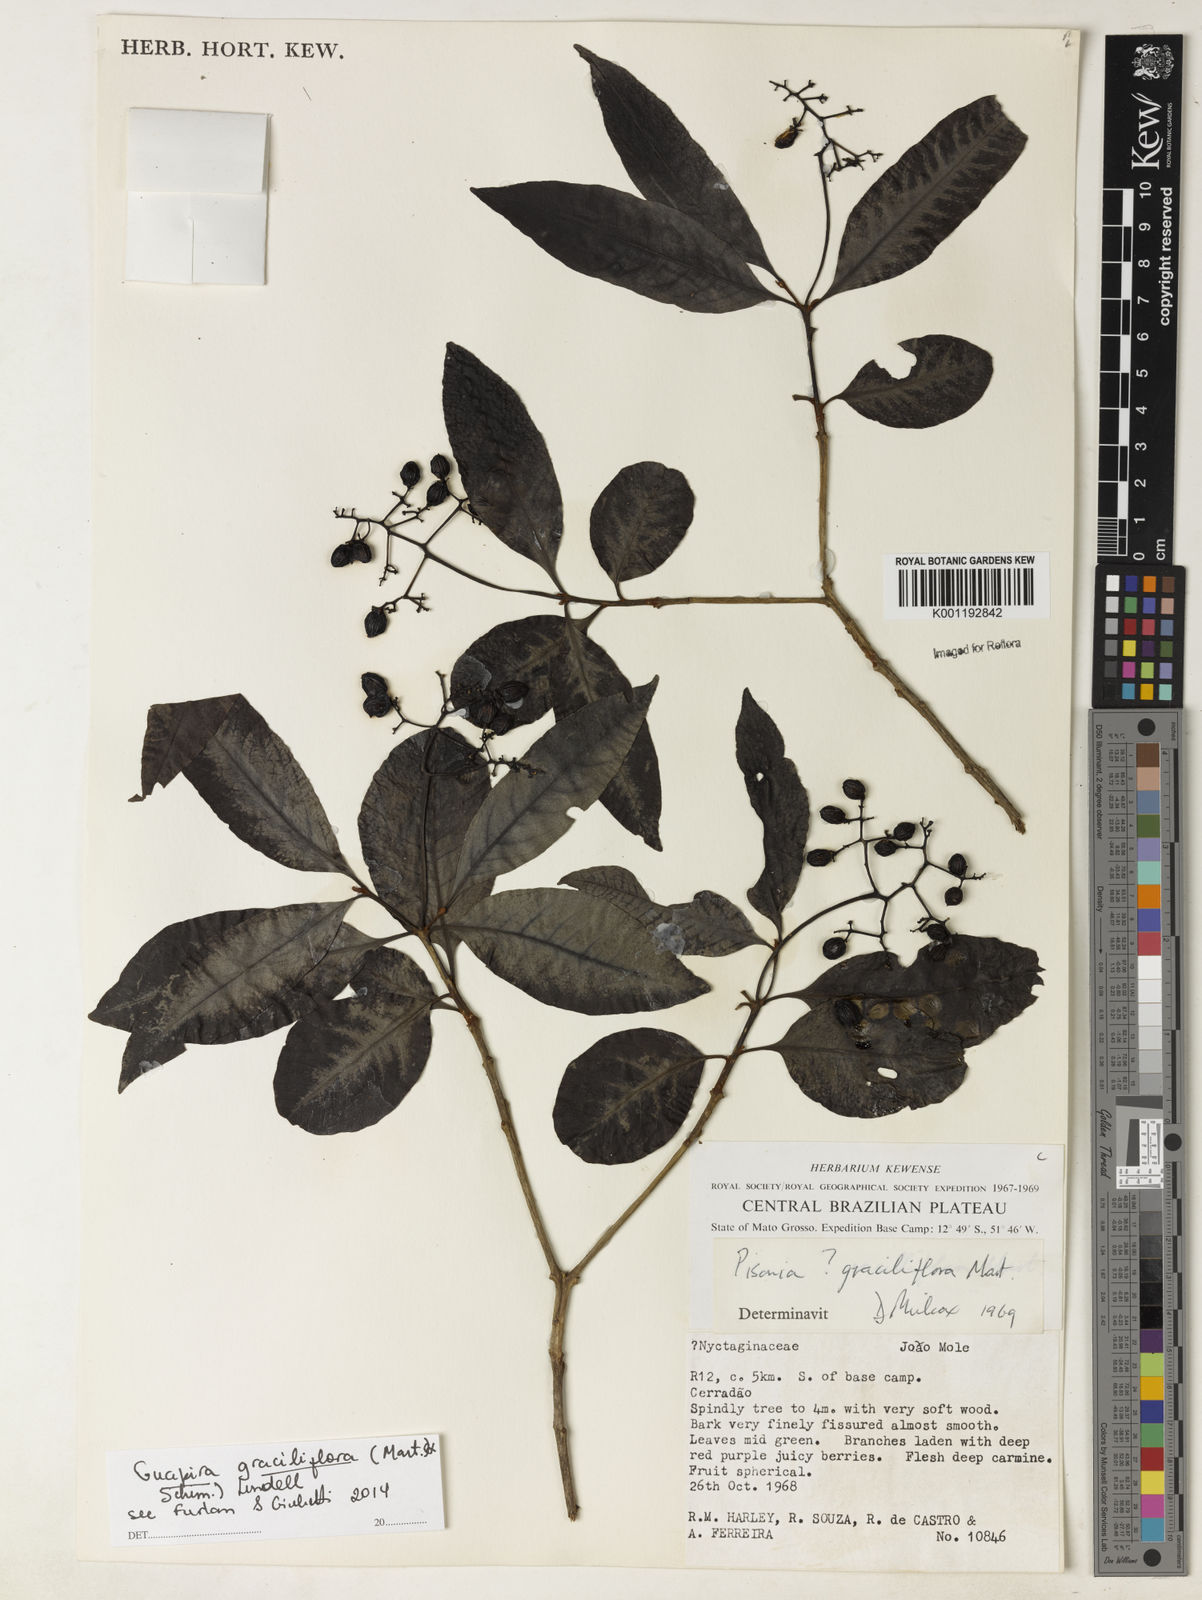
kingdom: Plantae
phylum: Tracheophyta
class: Magnoliopsida
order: Caryophyllales
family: Nyctaginaceae
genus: Guapira
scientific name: Guapira graciliflora
